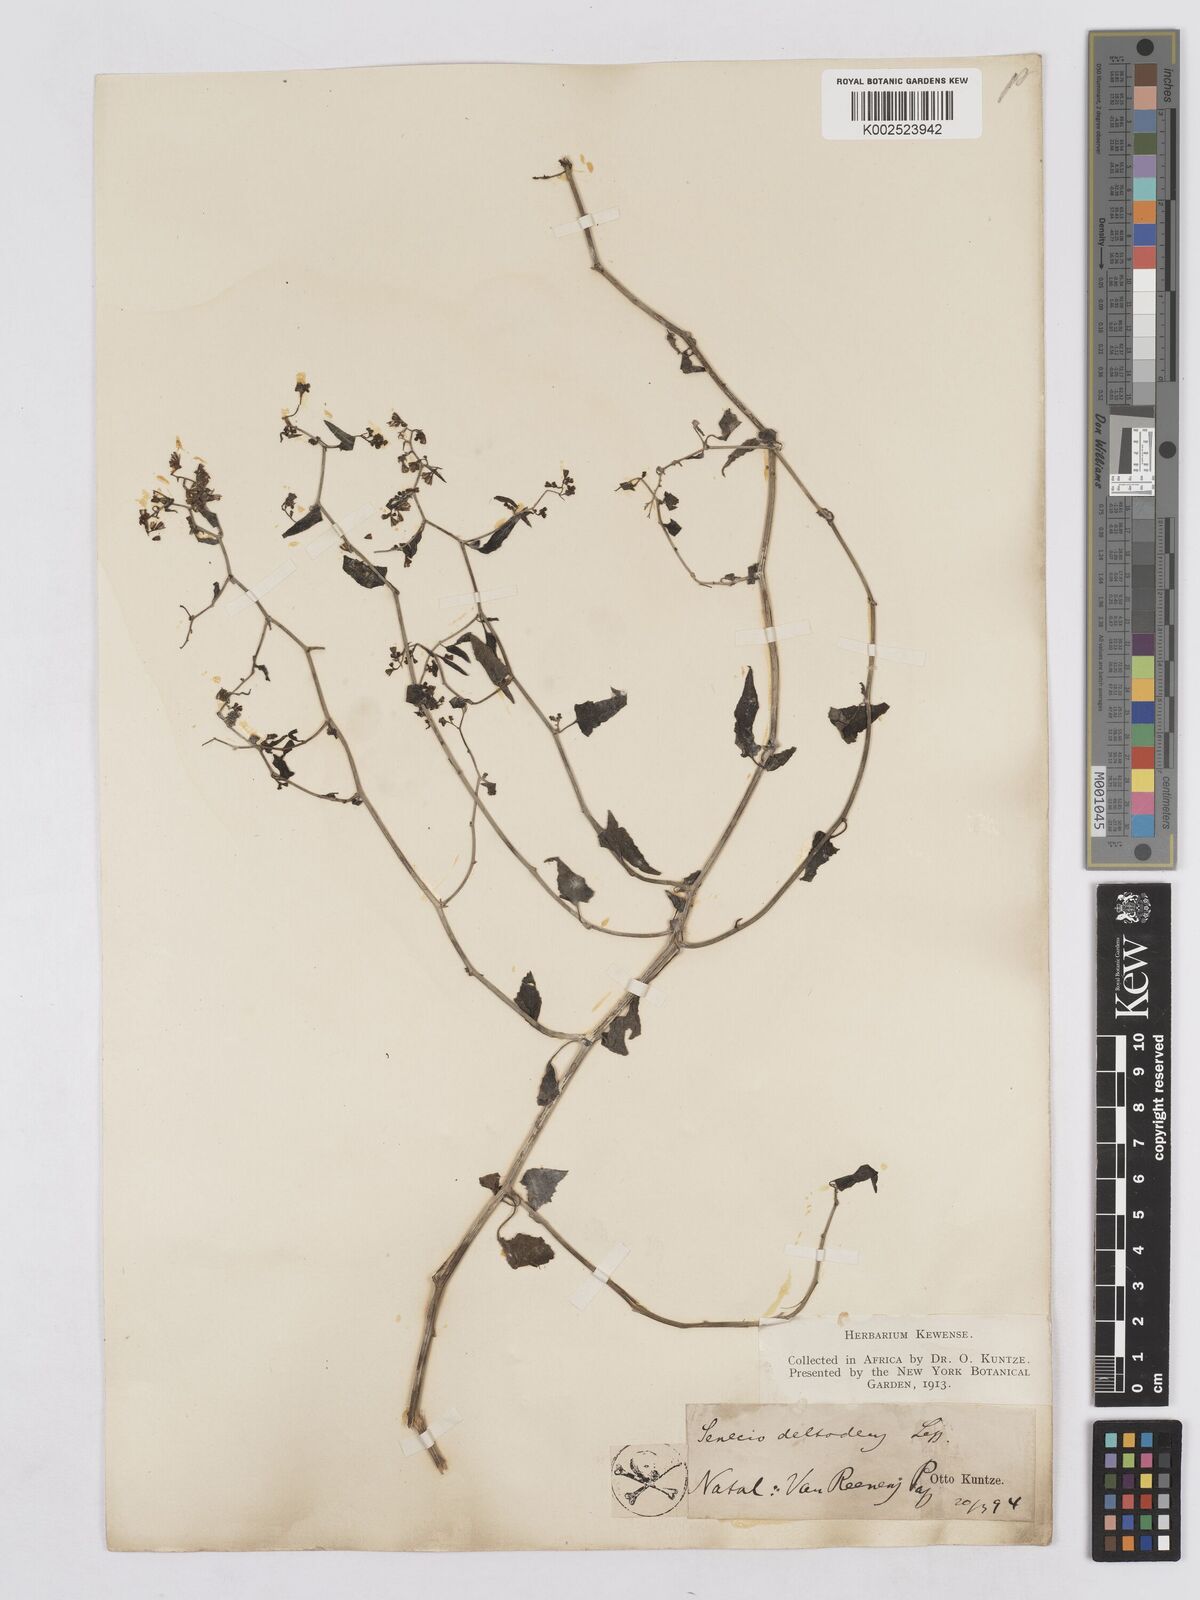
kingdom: Plantae
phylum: Tracheophyta
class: Magnoliopsida
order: Asterales
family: Asteraceae
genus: Senecio
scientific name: Senecio deltoideus
